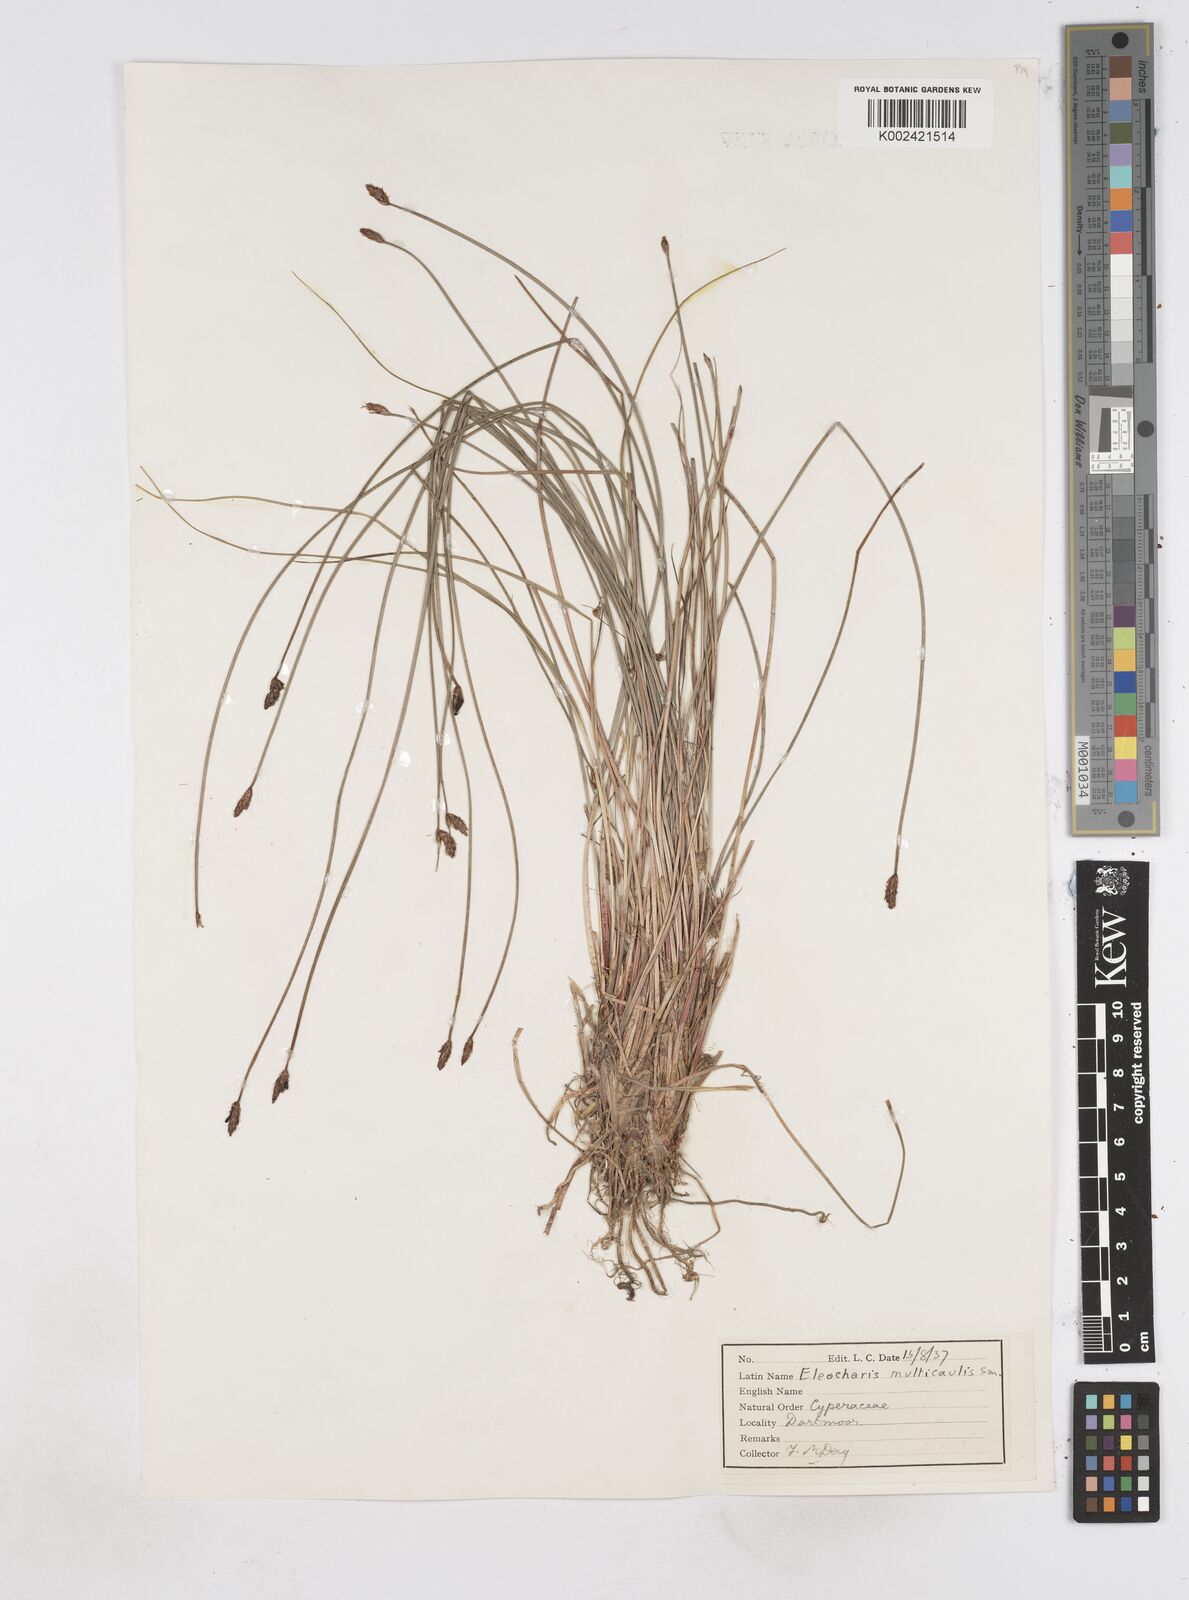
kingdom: Plantae
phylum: Tracheophyta
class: Liliopsida
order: Poales
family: Cyperaceae
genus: Eleocharis
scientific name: Eleocharis multicaulis
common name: Many-stalked spike-rush
